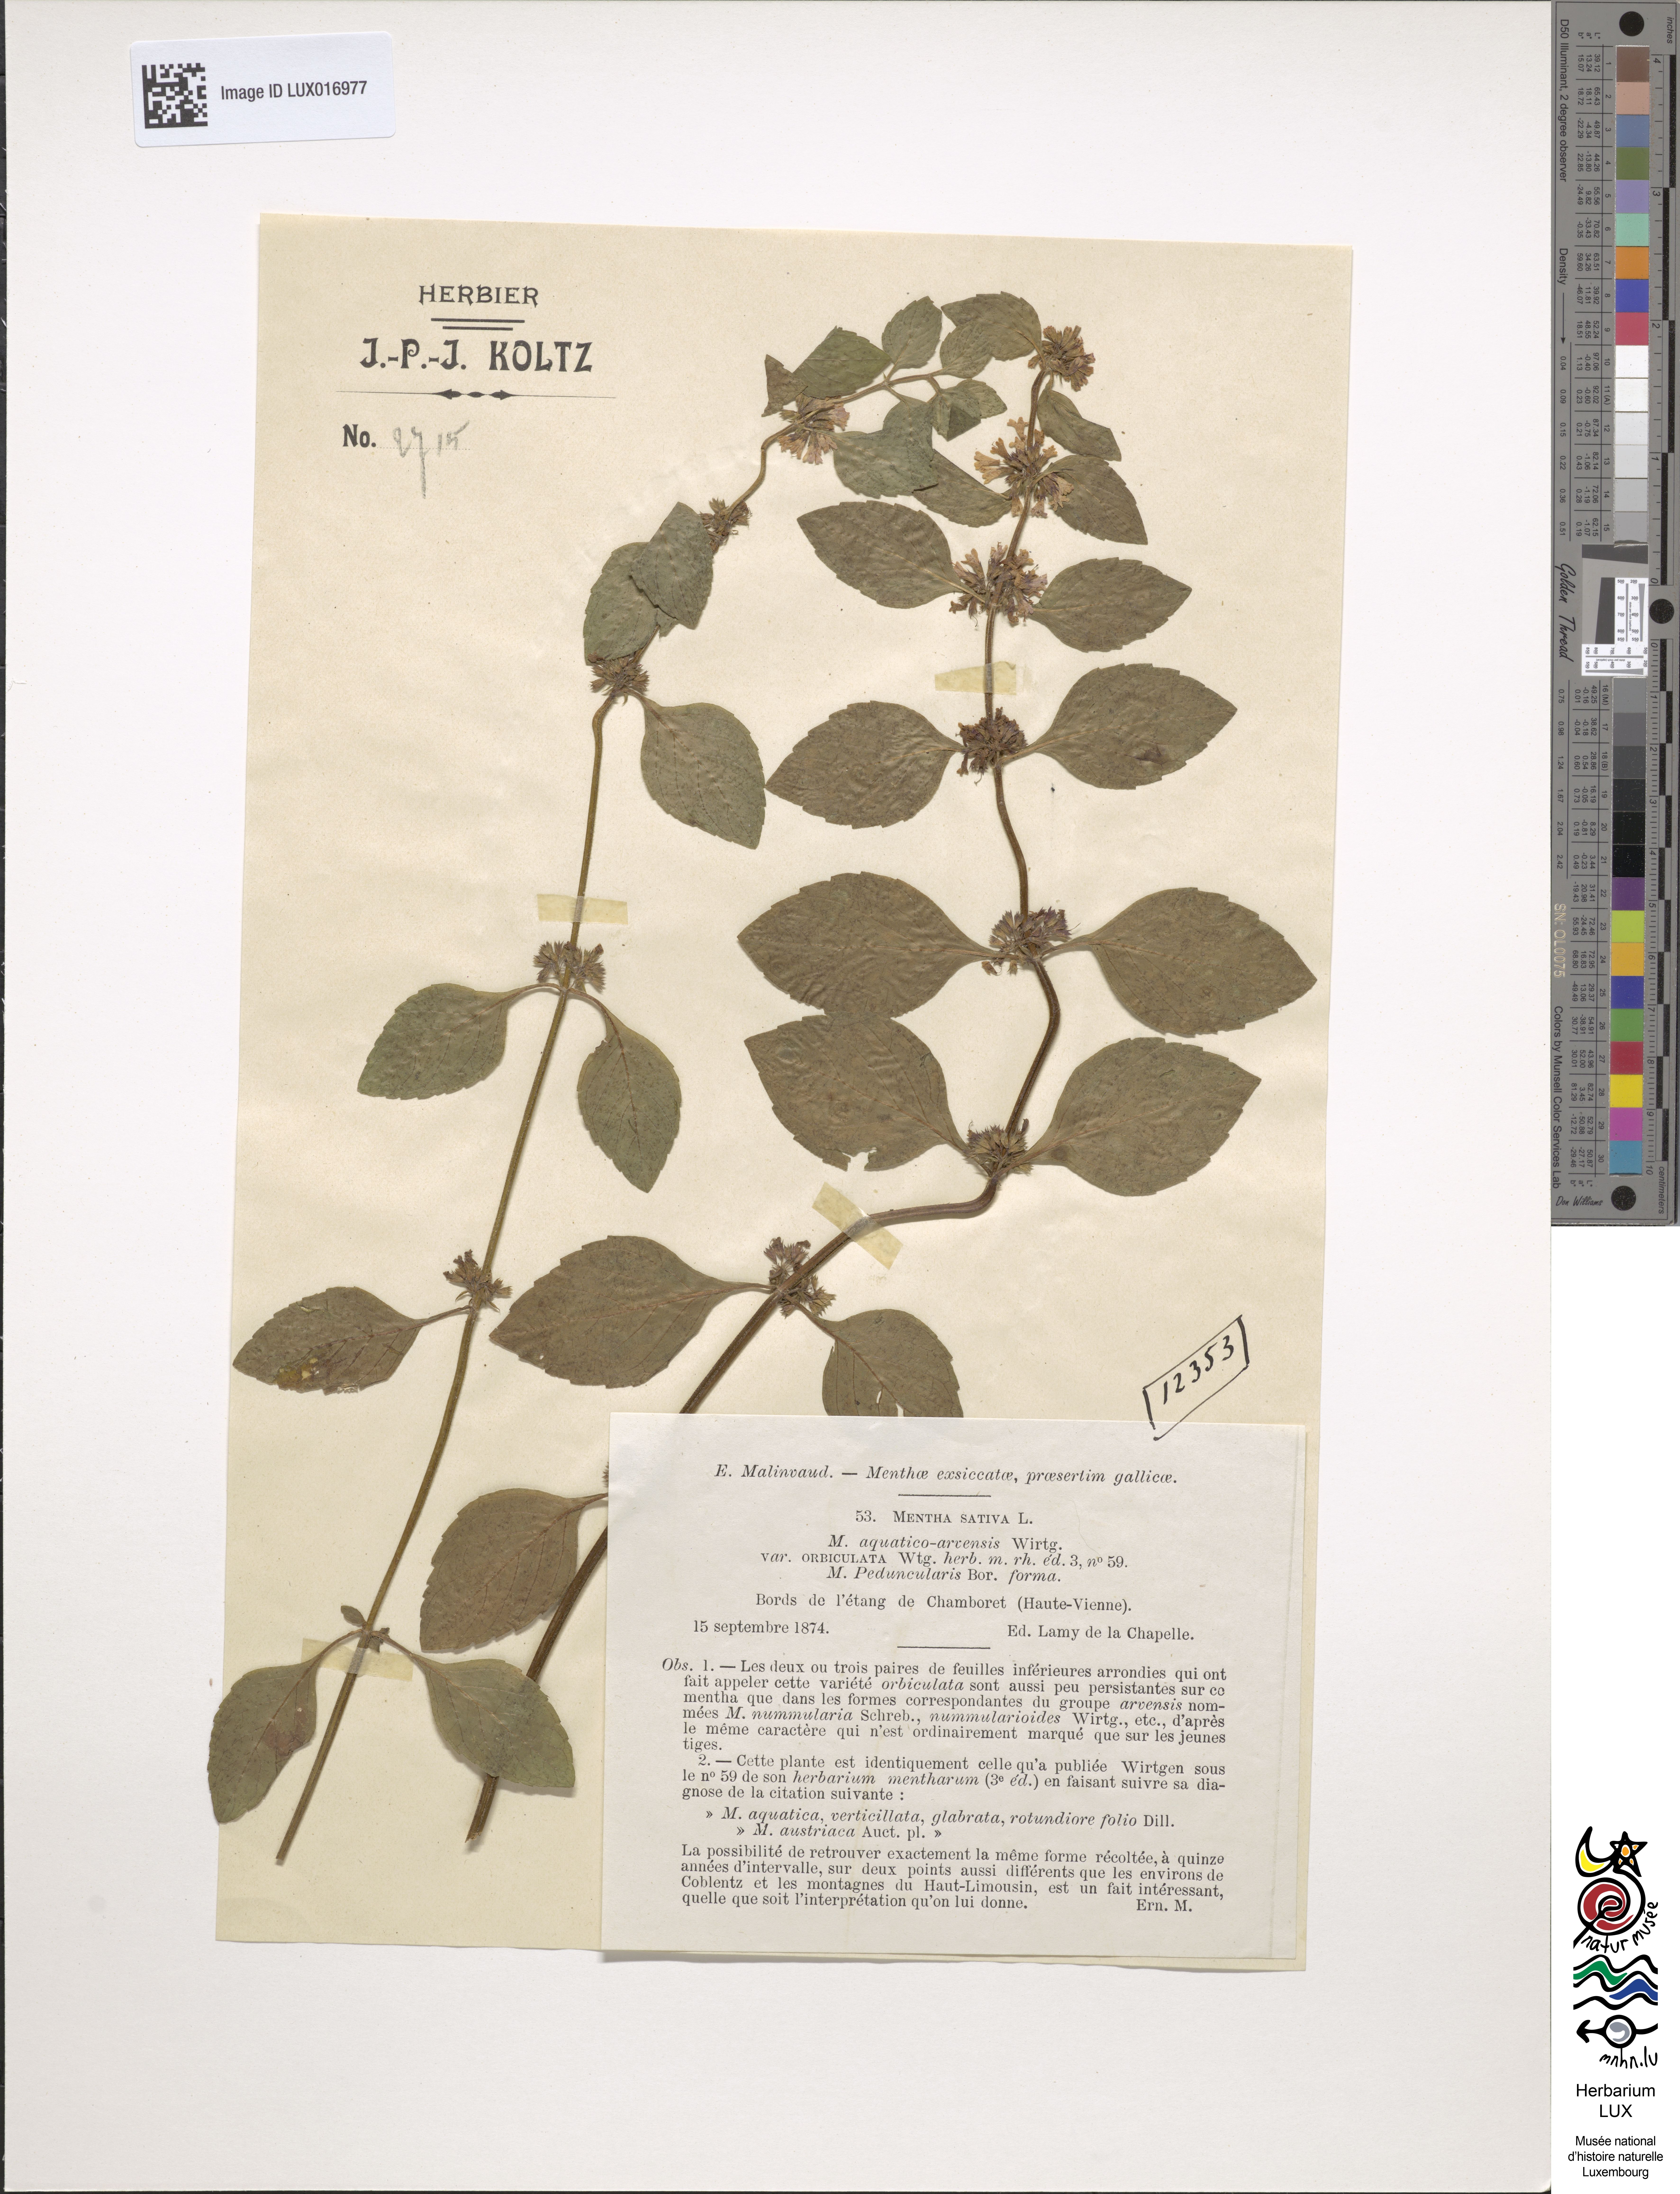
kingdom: Plantae
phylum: Tracheophyta
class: Magnoliopsida
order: Lamiales
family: Lamiaceae
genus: Mentha
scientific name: Mentha verticillata
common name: Mint
